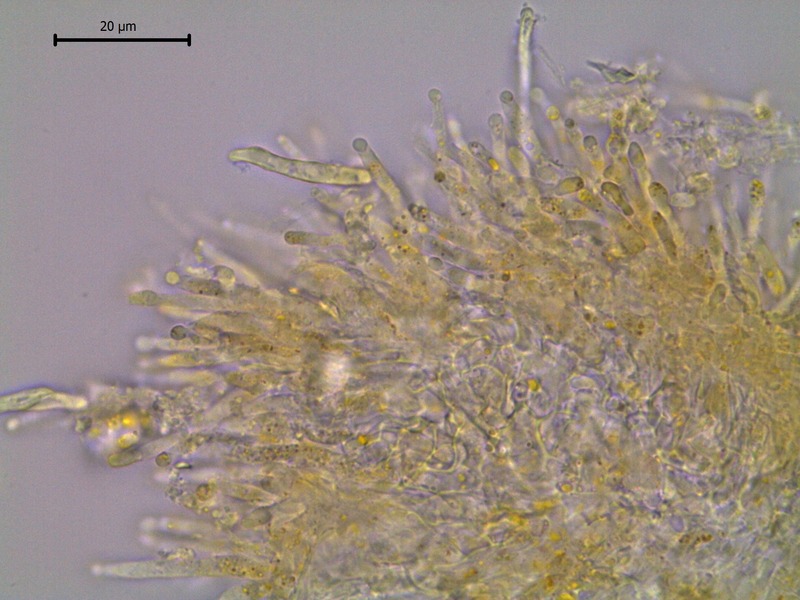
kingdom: Fungi
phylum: Basidiomycota
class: Pucciniomycetes
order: Pucciniales
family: Pucciniaceae
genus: Uromyces
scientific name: Uromyces pisi-sativi
